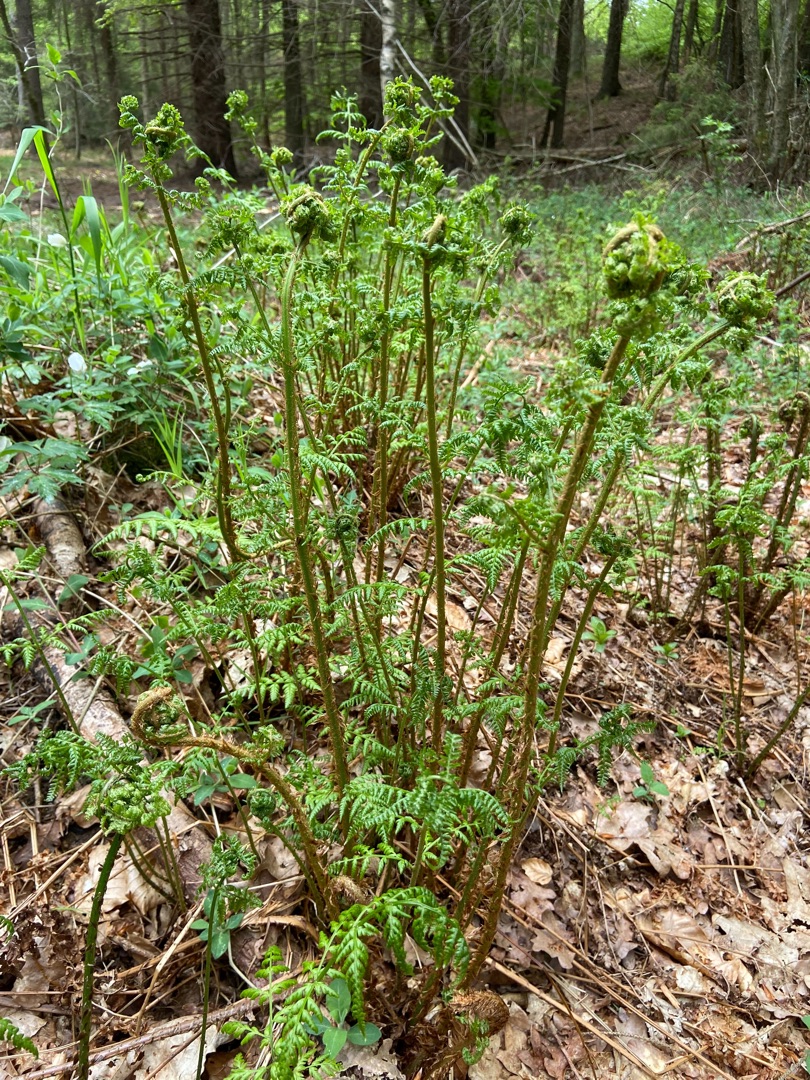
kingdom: Plantae
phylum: Tracheophyta
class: Polypodiopsida
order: Polypodiales
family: Dryopteridaceae
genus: Dryopteris
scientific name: Dryopteris dilatata
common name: Bredbladet mangeløv
